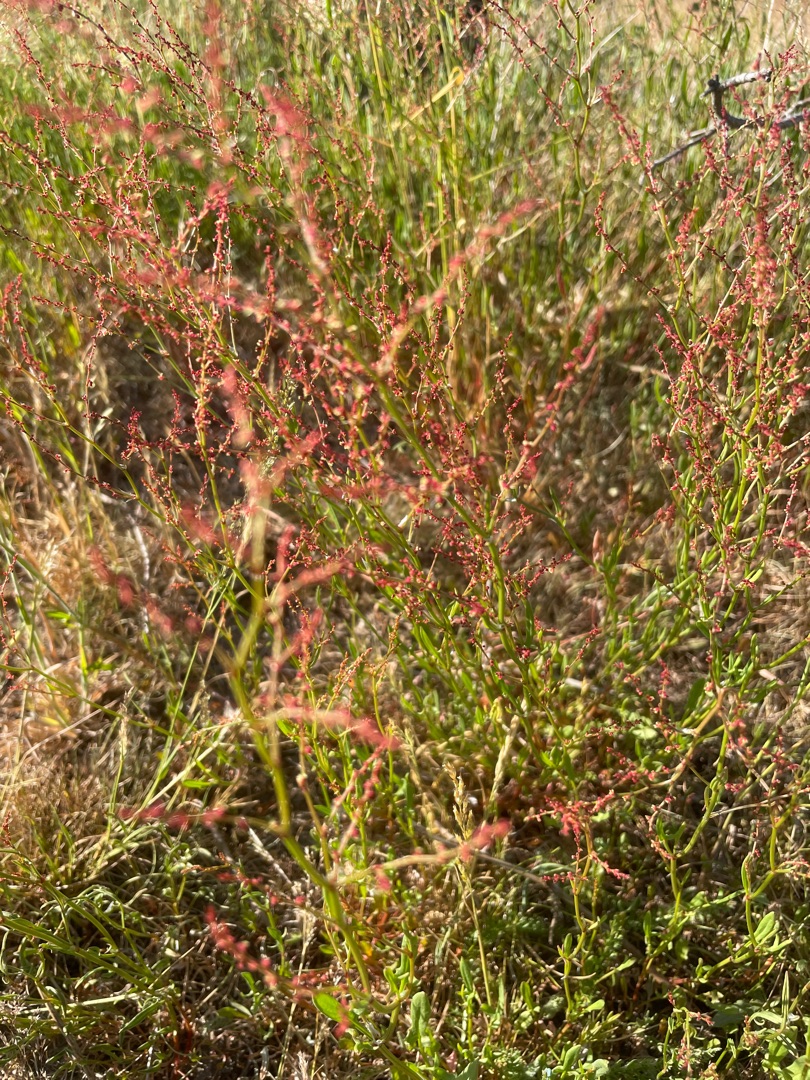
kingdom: Plantae
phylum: Tracheophyta
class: Magnoliopsida
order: Caryophyllales
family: Polygonaceae
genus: Rumex
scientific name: Rumex acetosella
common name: Rødknæ
